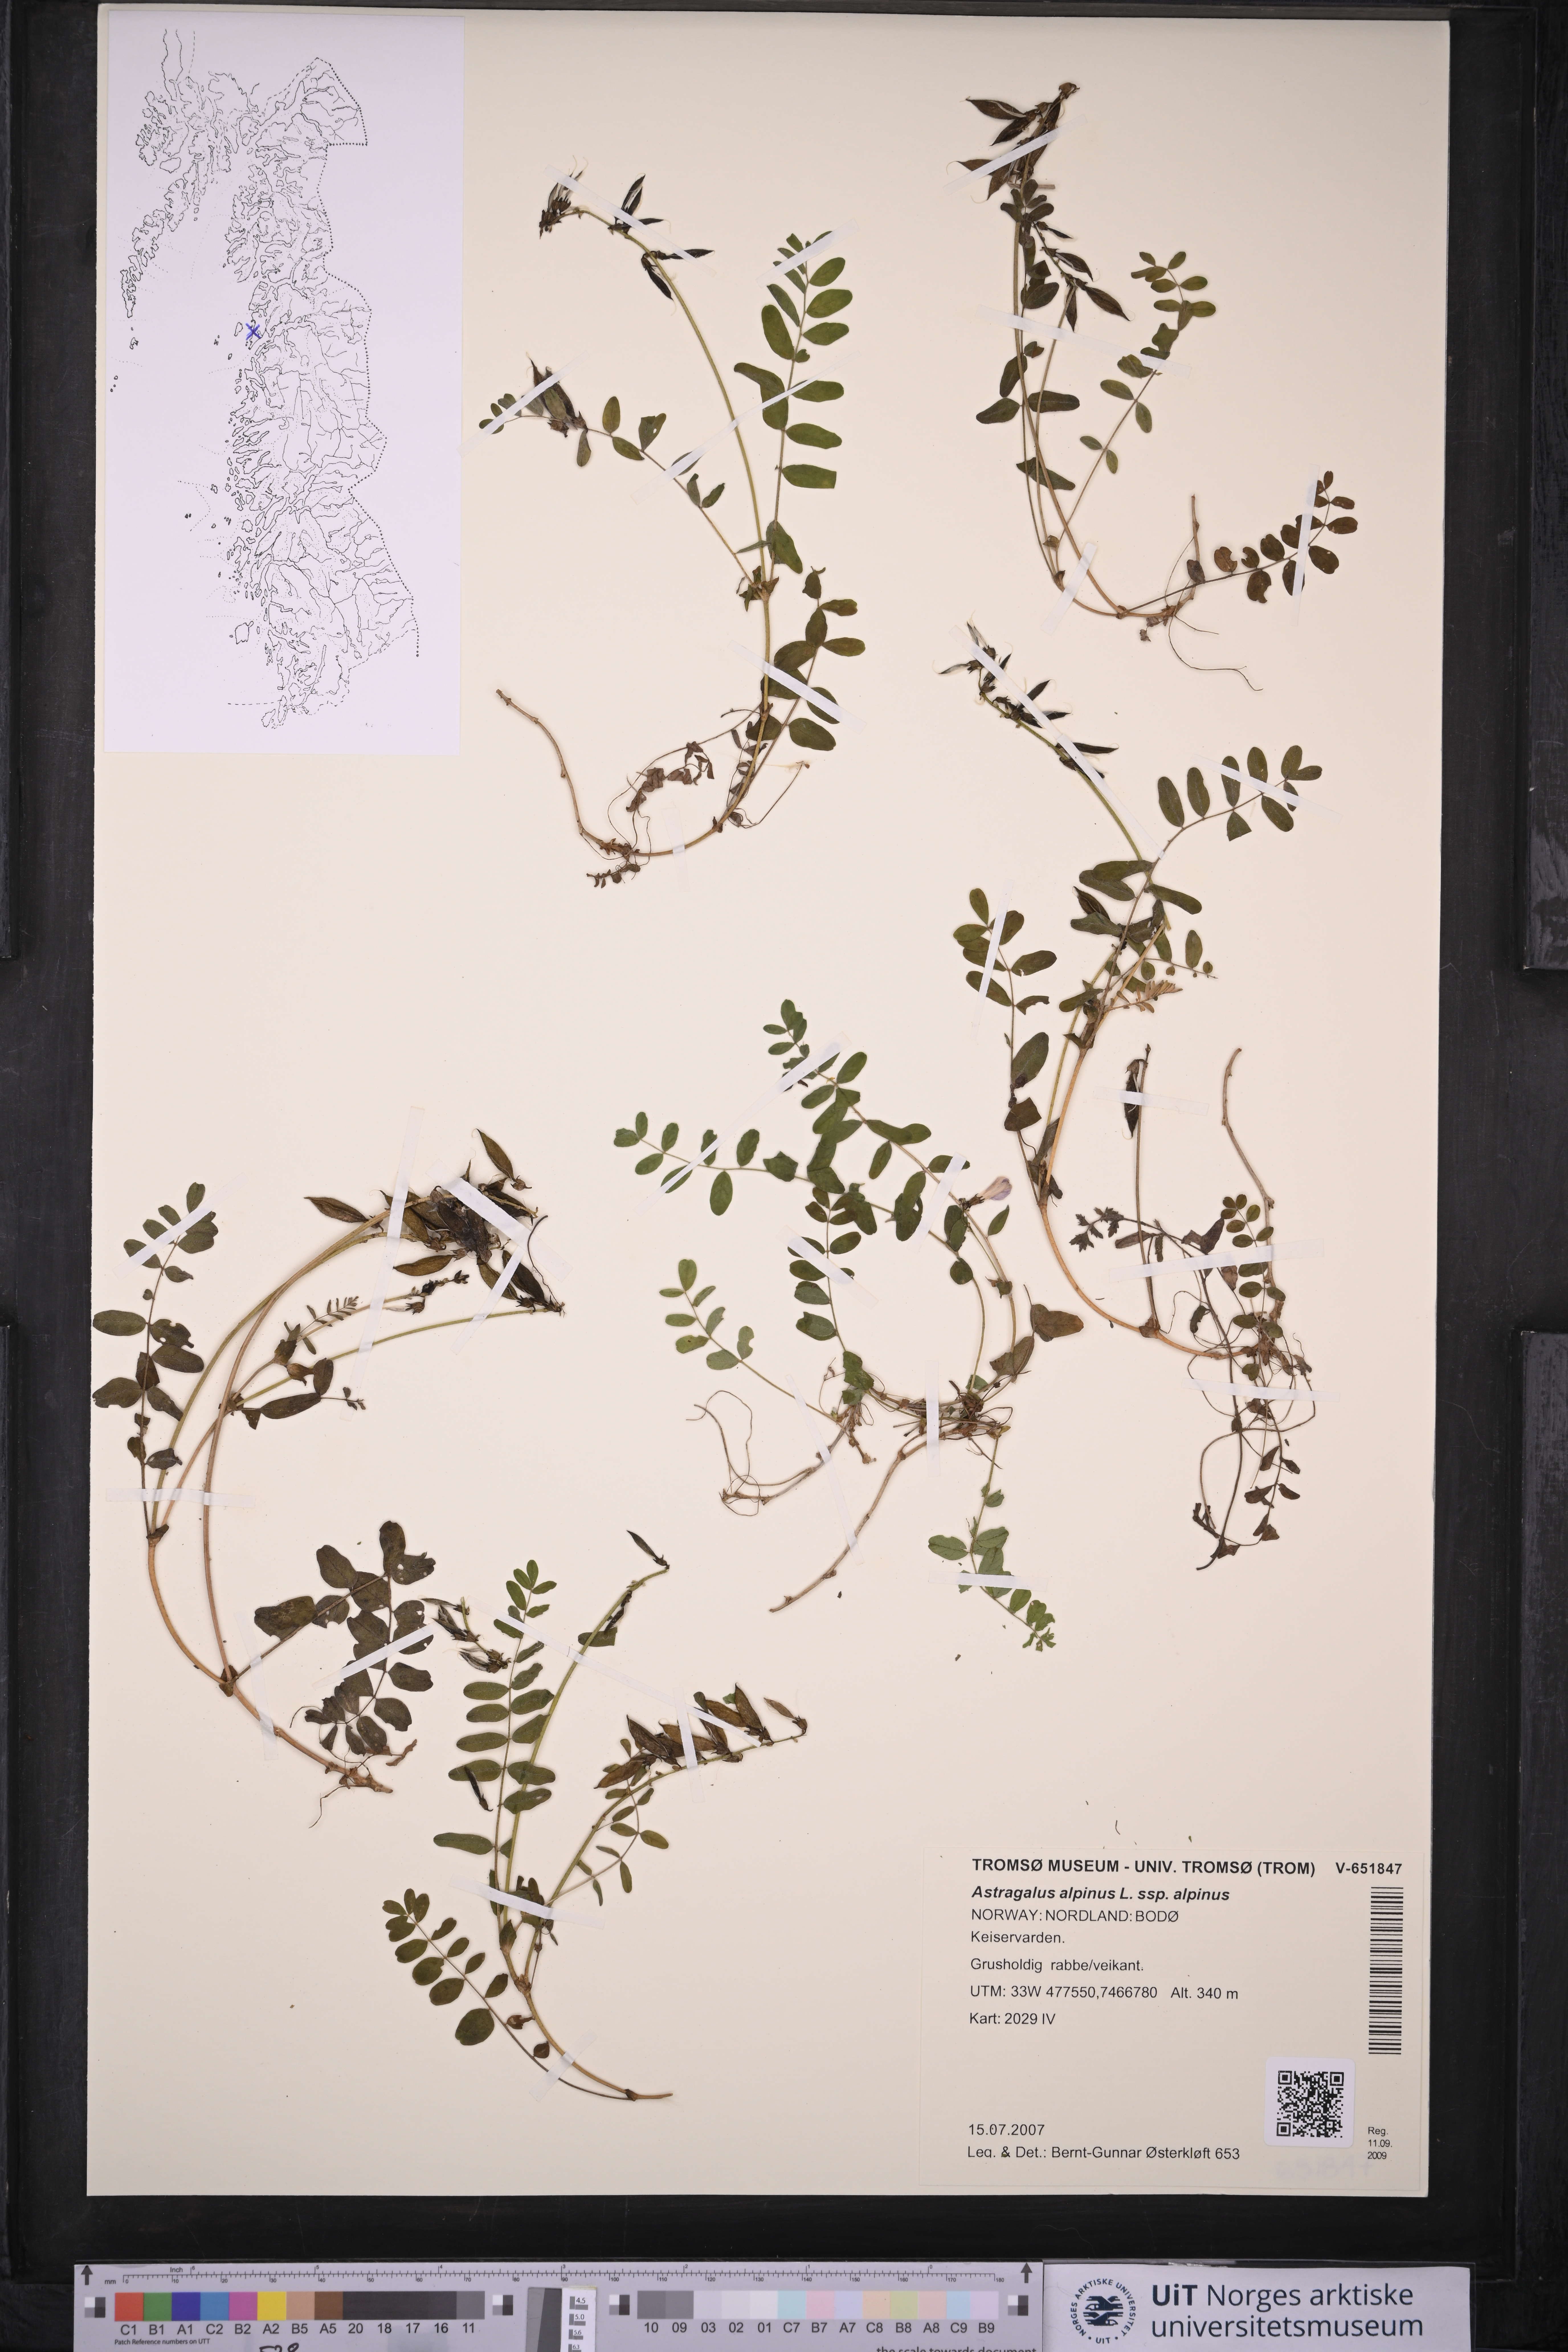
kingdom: Plantae
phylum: Tracheophyta
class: Magnoliopsida
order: Fabales
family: Fabaceae
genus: Astragalus
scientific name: Astragalus alpinus
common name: Alpine milk-vetch
